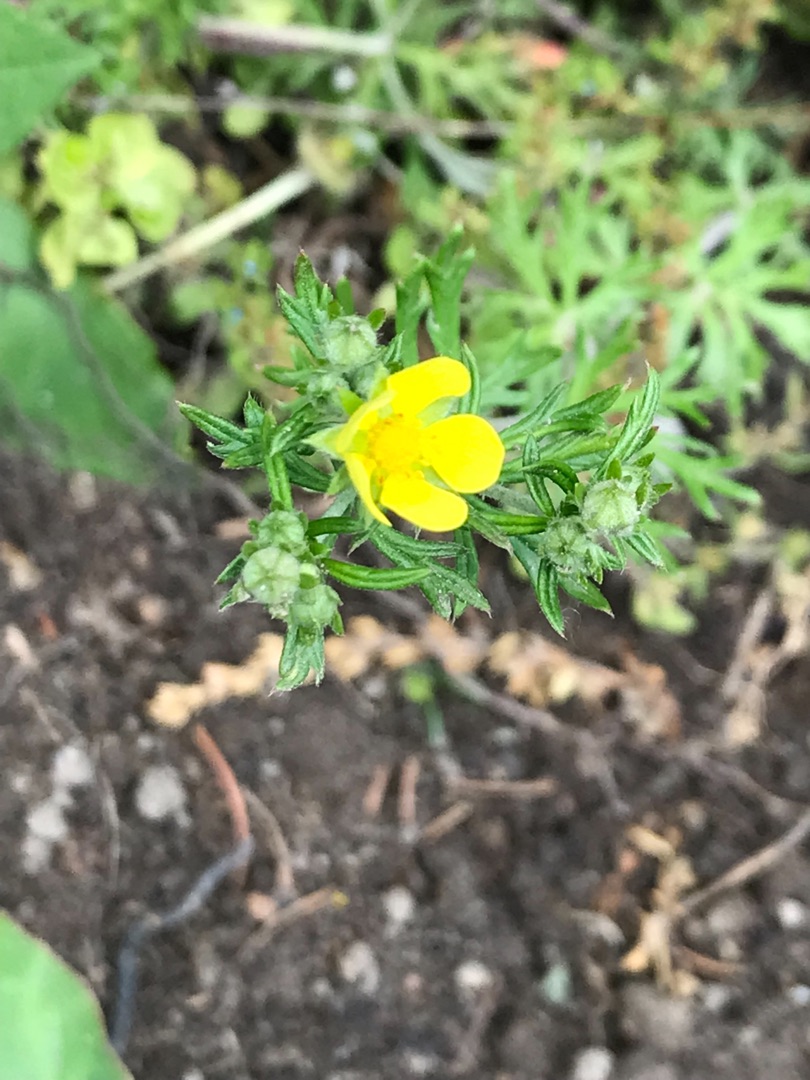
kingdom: Plantae
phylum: Tracheophyta
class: Magnoliopsida
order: Rosales
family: Rosaceae
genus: Potentilla
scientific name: Potentilla argentea
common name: Sølv-potentil
